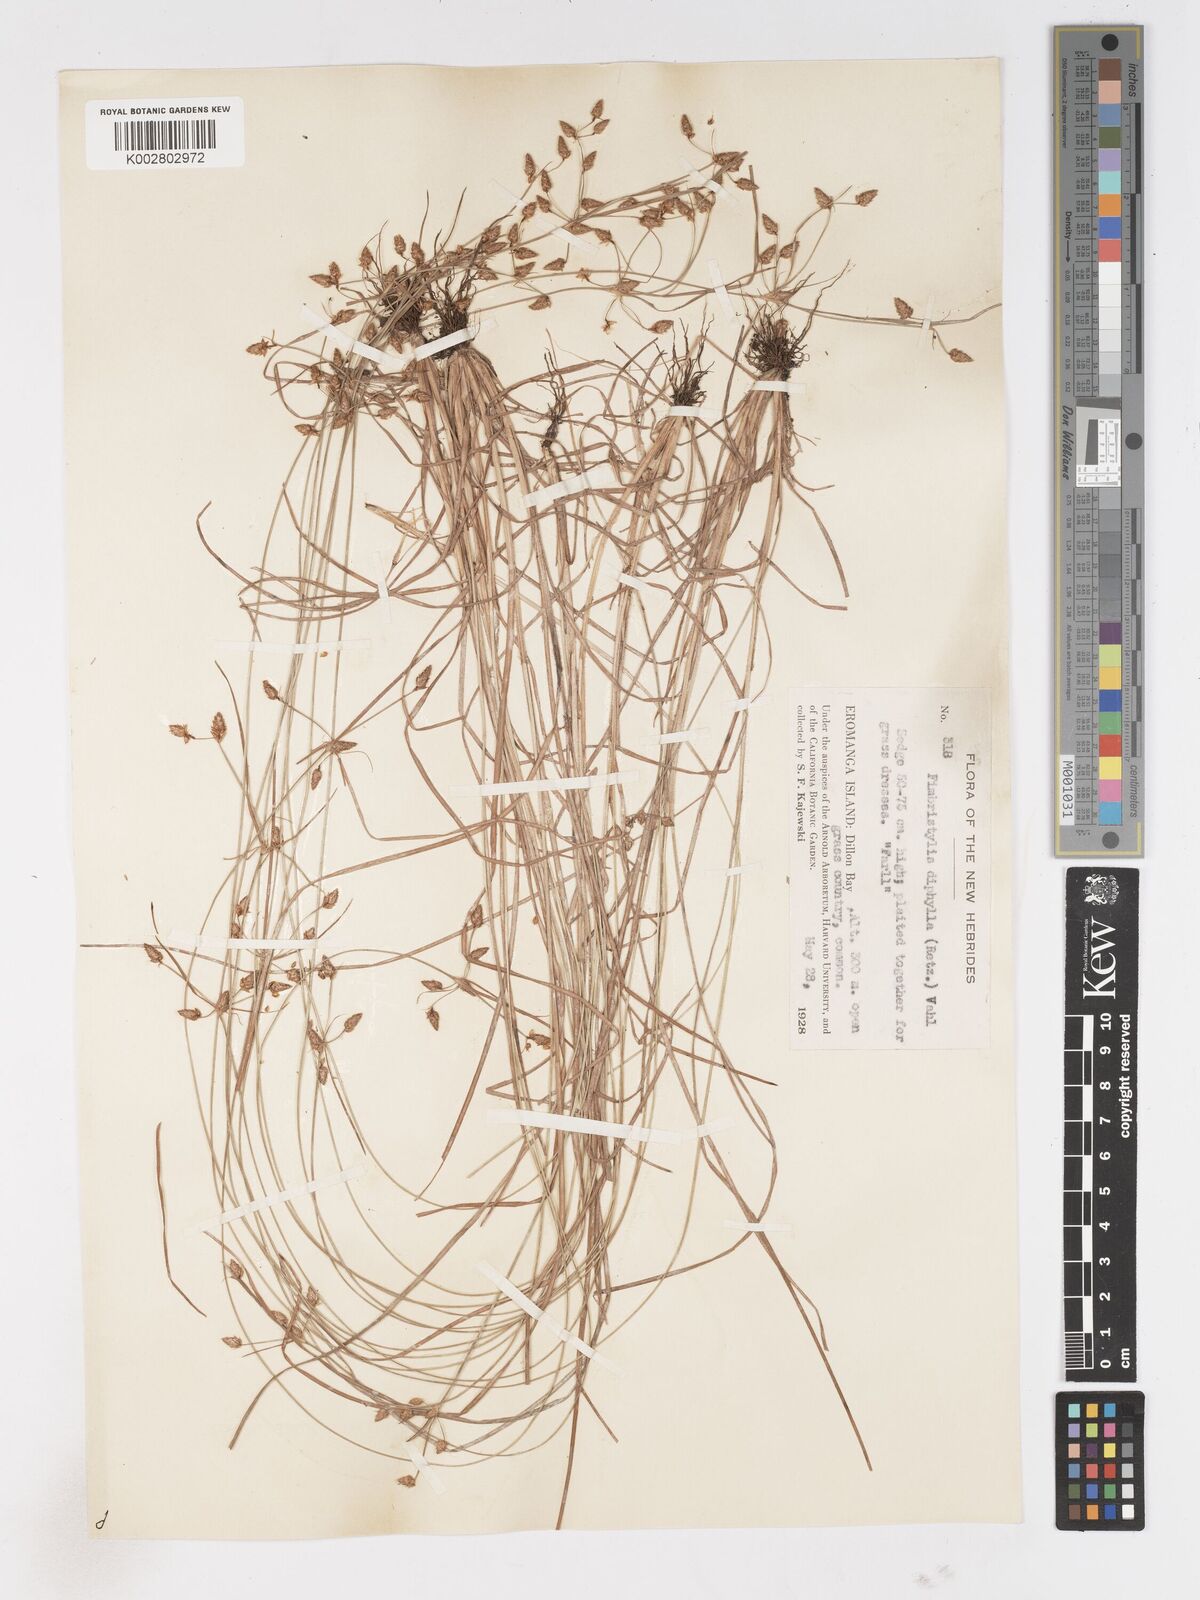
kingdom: Plantae
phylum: Tracheophyta
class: Liliopsida
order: Poales
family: Cyperaceae
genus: Fimbristylis
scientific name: Fimbristylis dichotoma
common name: Forked fimbry
